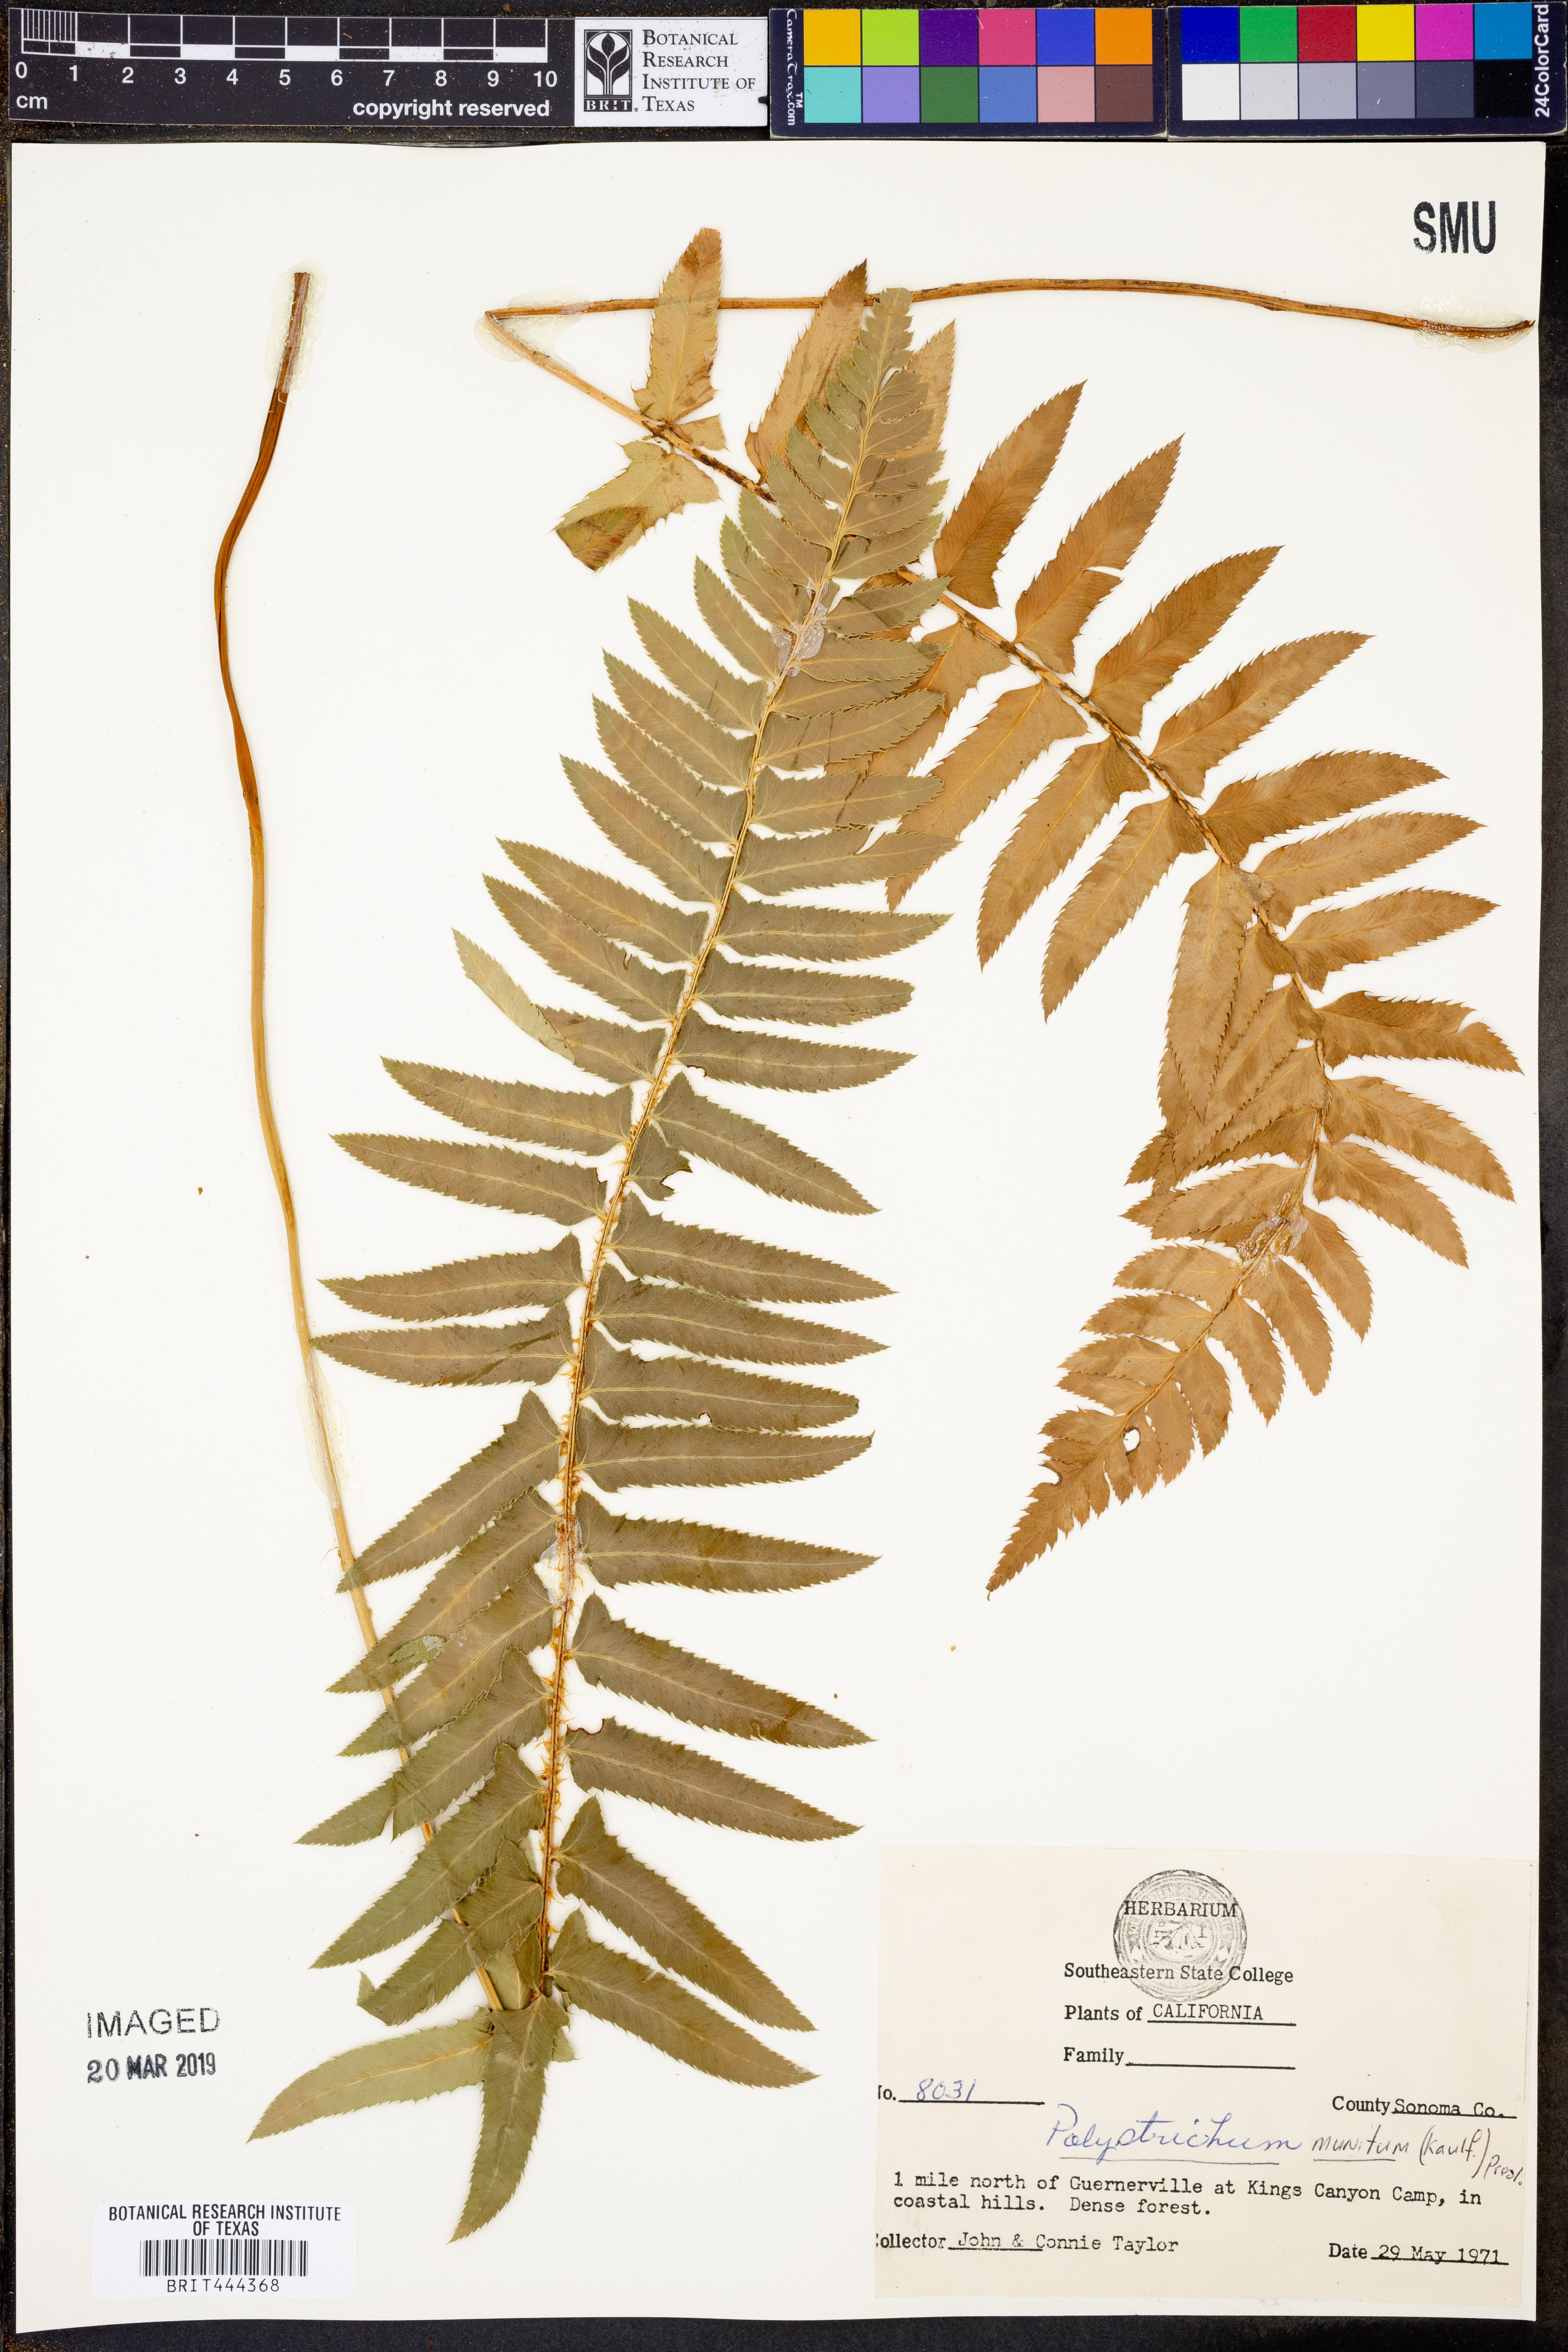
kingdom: Plantae
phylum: Tracheophyta
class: Polypodiopsida
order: Polypodiales
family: Dryopteridaceae
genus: Polystichum
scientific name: Polystichum munitum
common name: Western sword-fern
